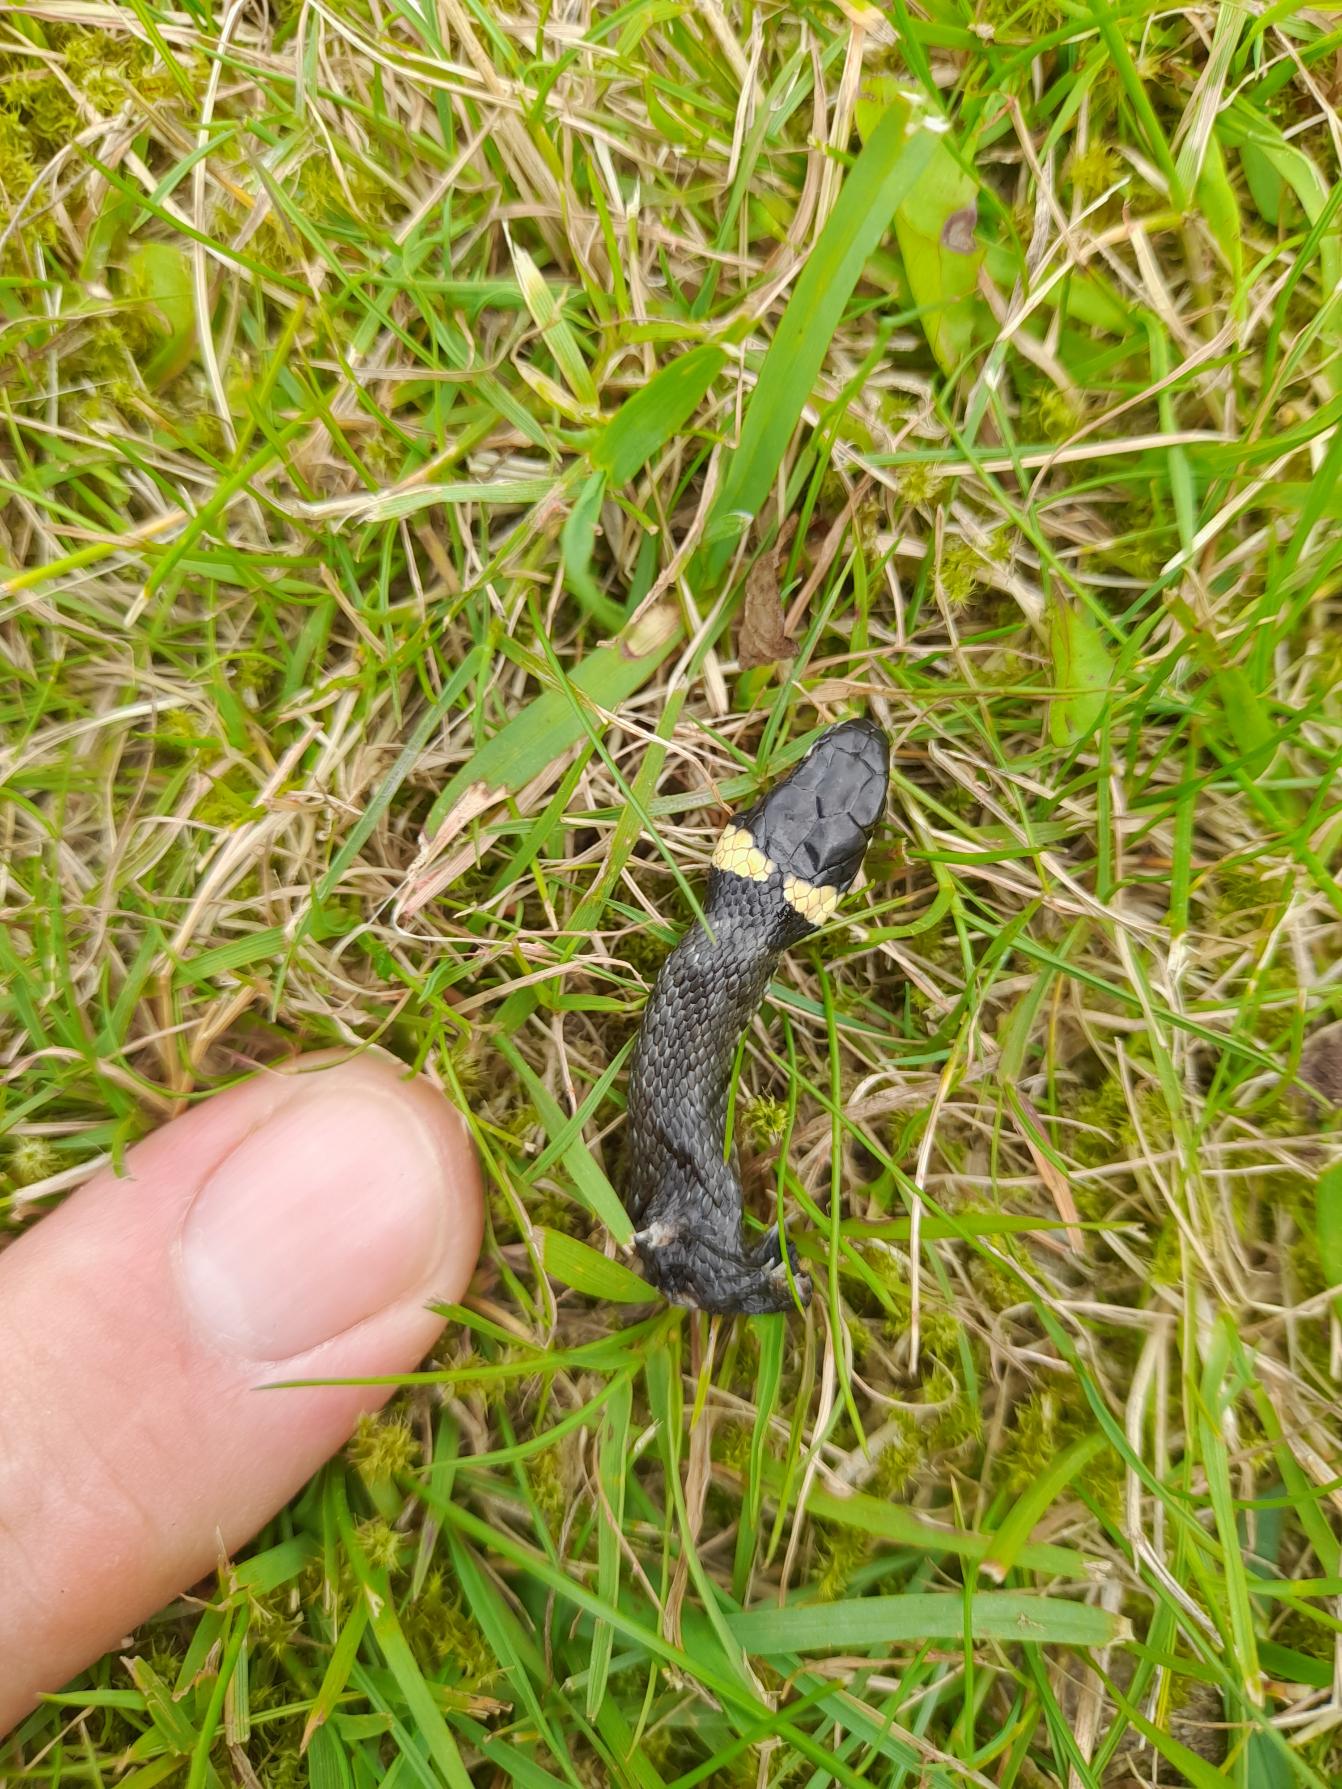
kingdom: Animalia
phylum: Chordata
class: Squamata
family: Colubridae
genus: Natrix
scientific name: Natrix natrix
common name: Snog
